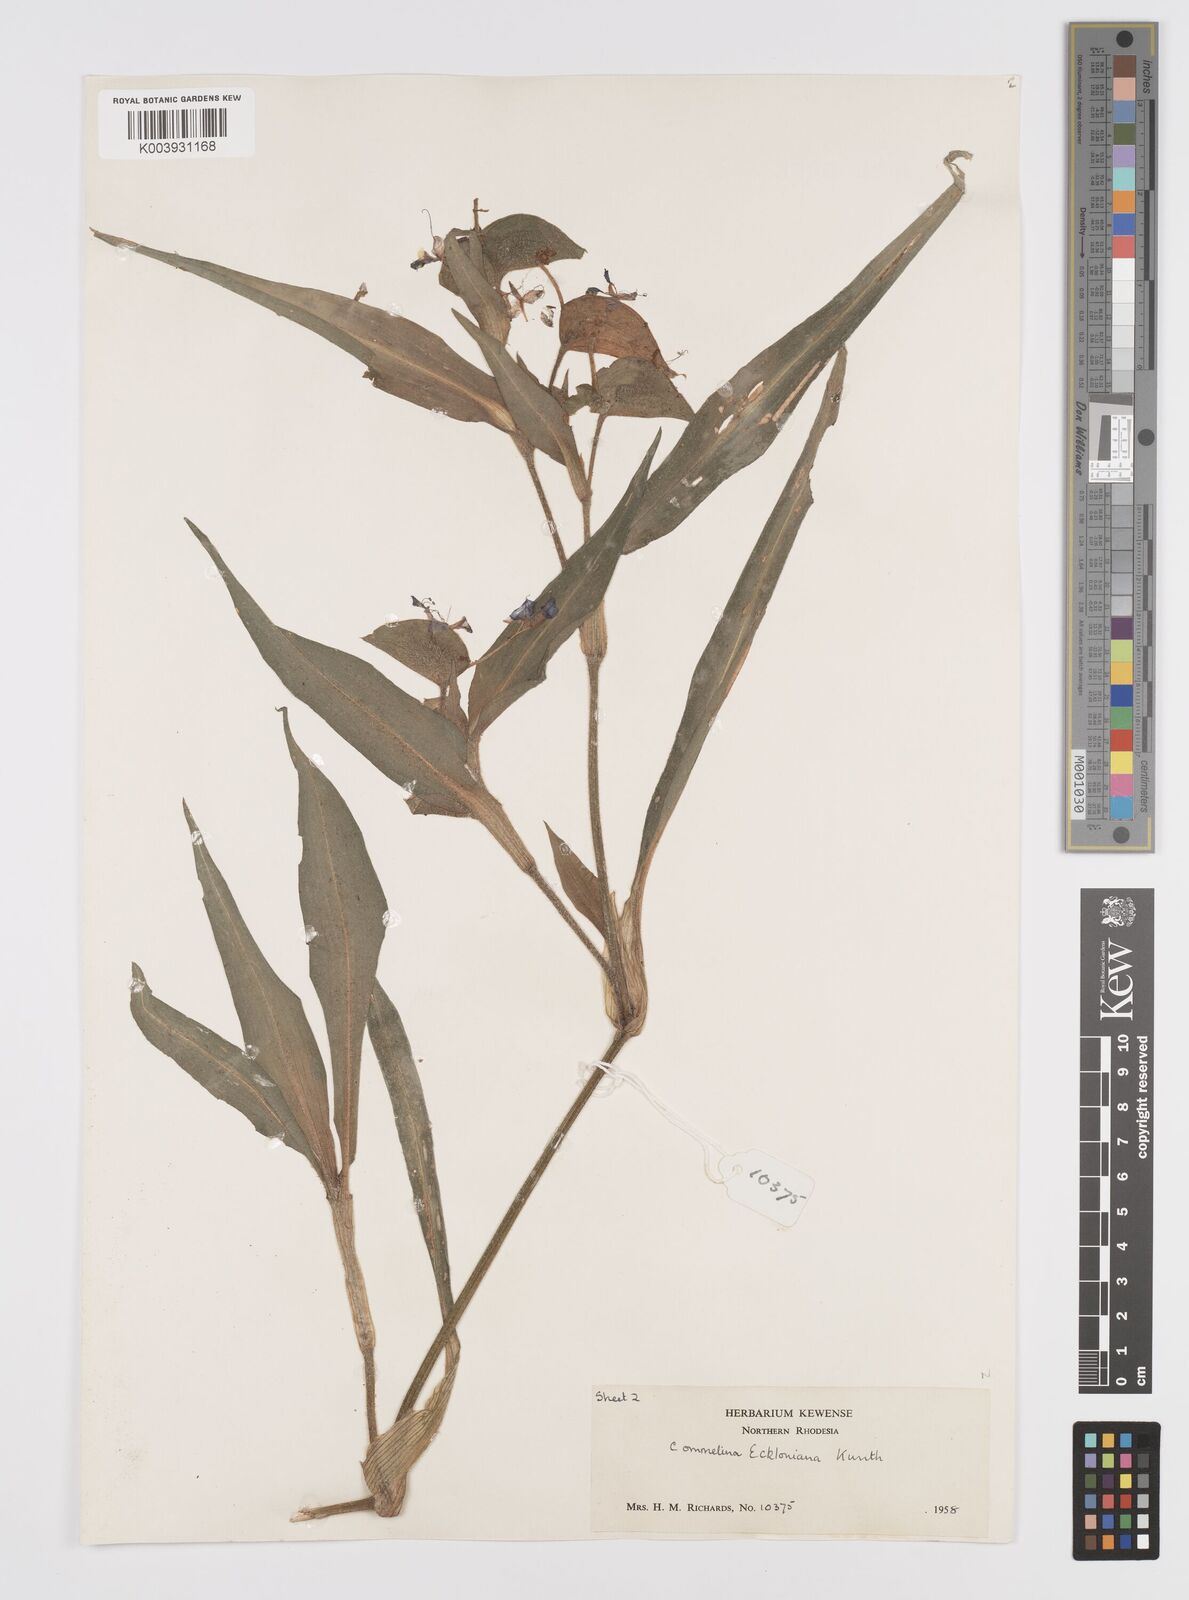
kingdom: Plantae
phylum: Tracheophyta
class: Liliopsida
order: Commelinales
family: Commelinaceae
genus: Commelina
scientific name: Commelina eckloniana
